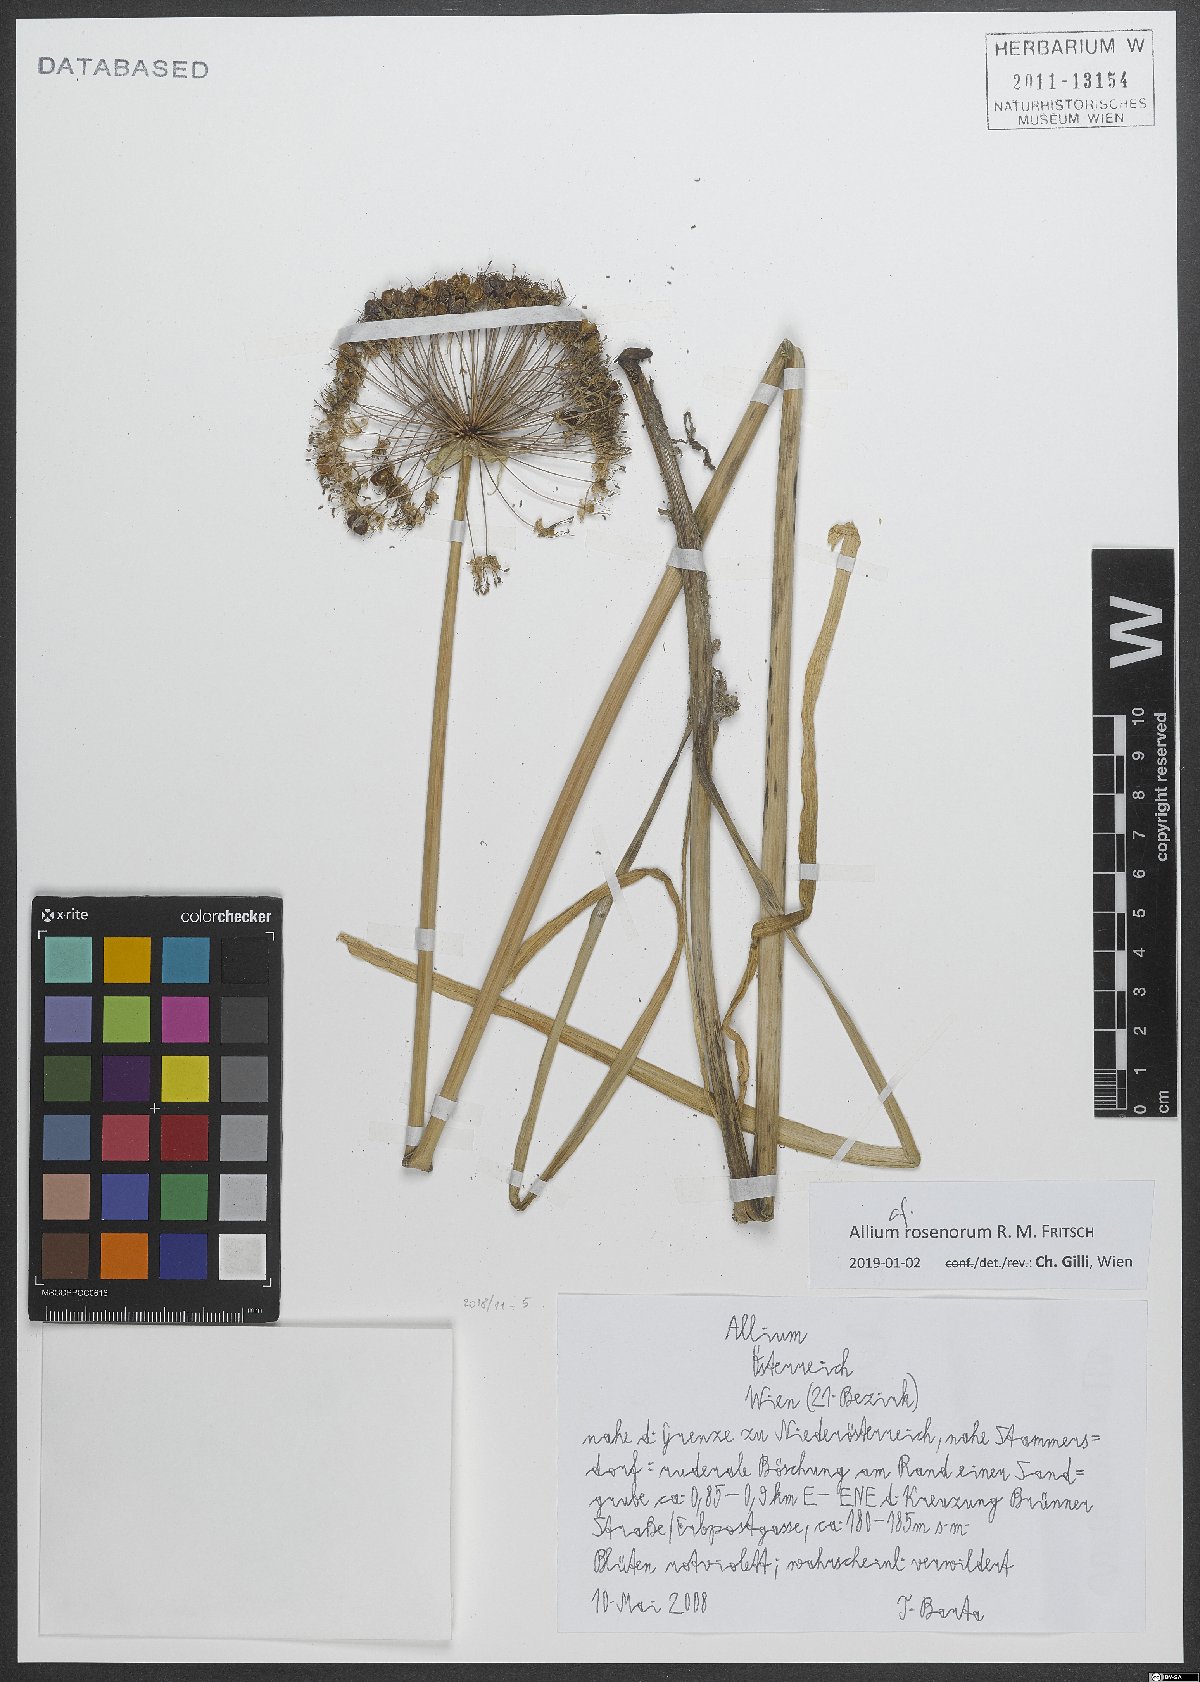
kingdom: Plantae
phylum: Tracheophyta
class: Liliopsida
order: Asparagales
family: Amaryllidaceae
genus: Allium
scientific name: Allium rosenorum
